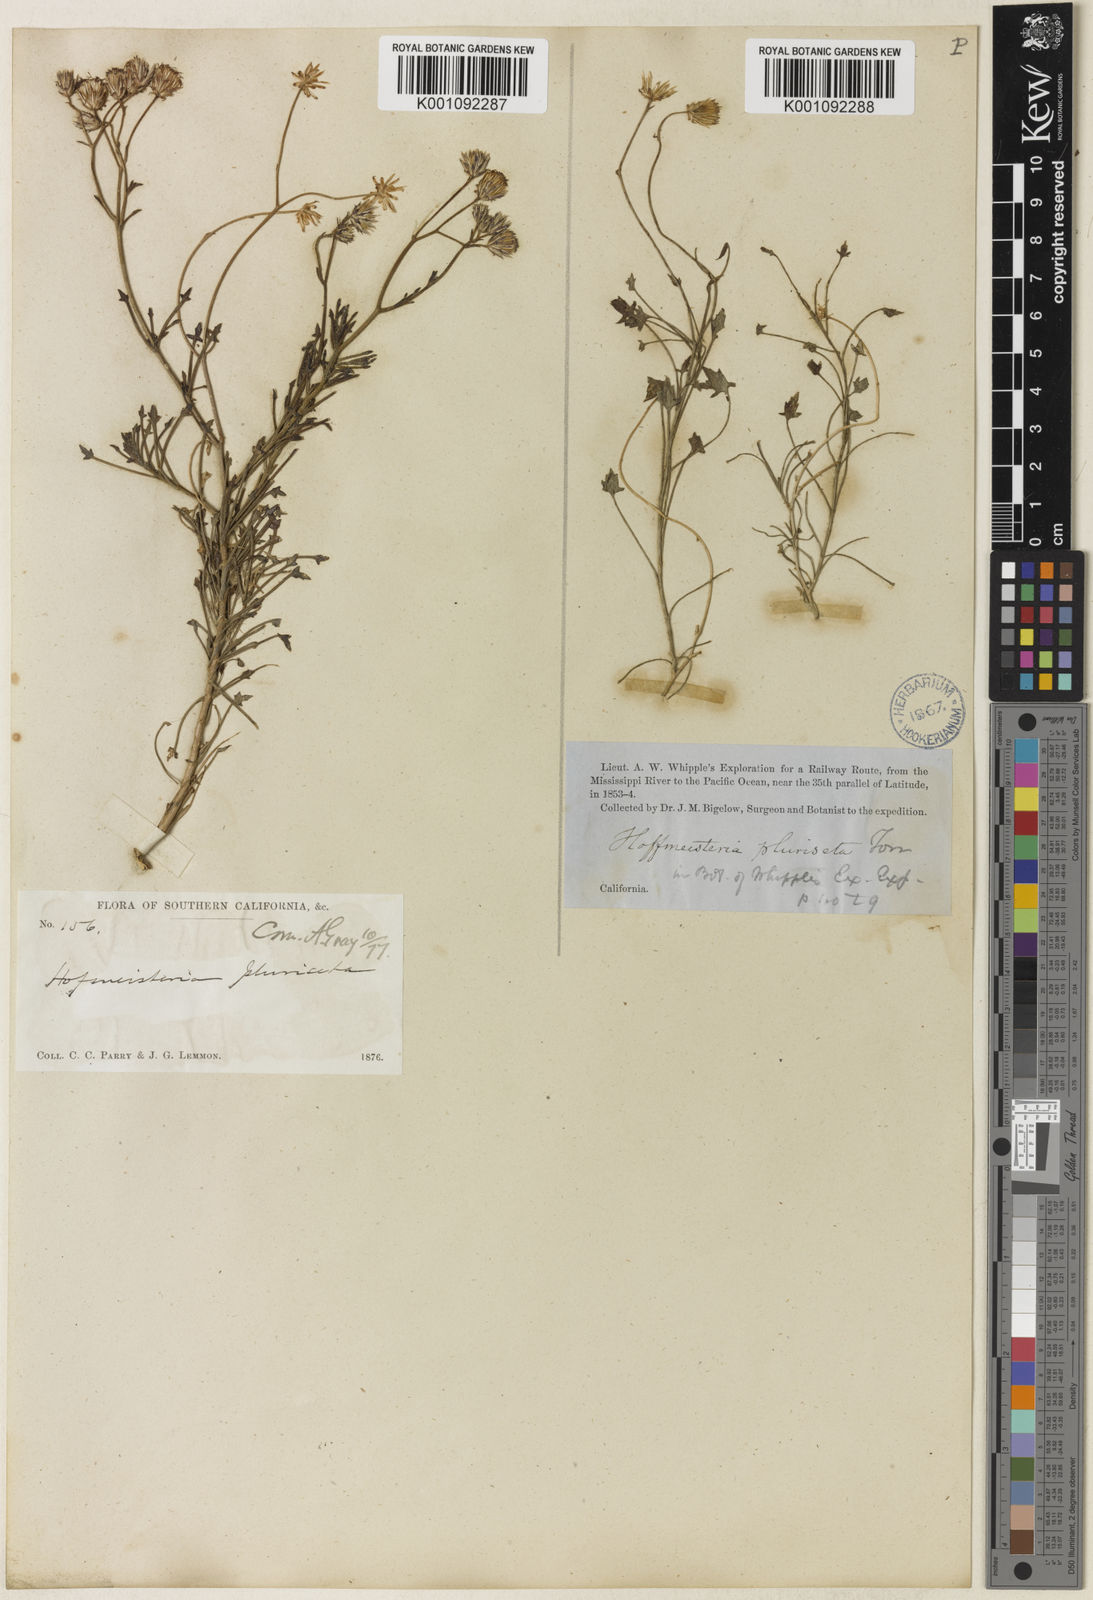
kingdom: Plantae
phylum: Tracheophyta
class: Magnoliopsida
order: Asterales
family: Asteraceae
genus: Pleurocoronis
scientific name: Pleurocoronis pluriseta
